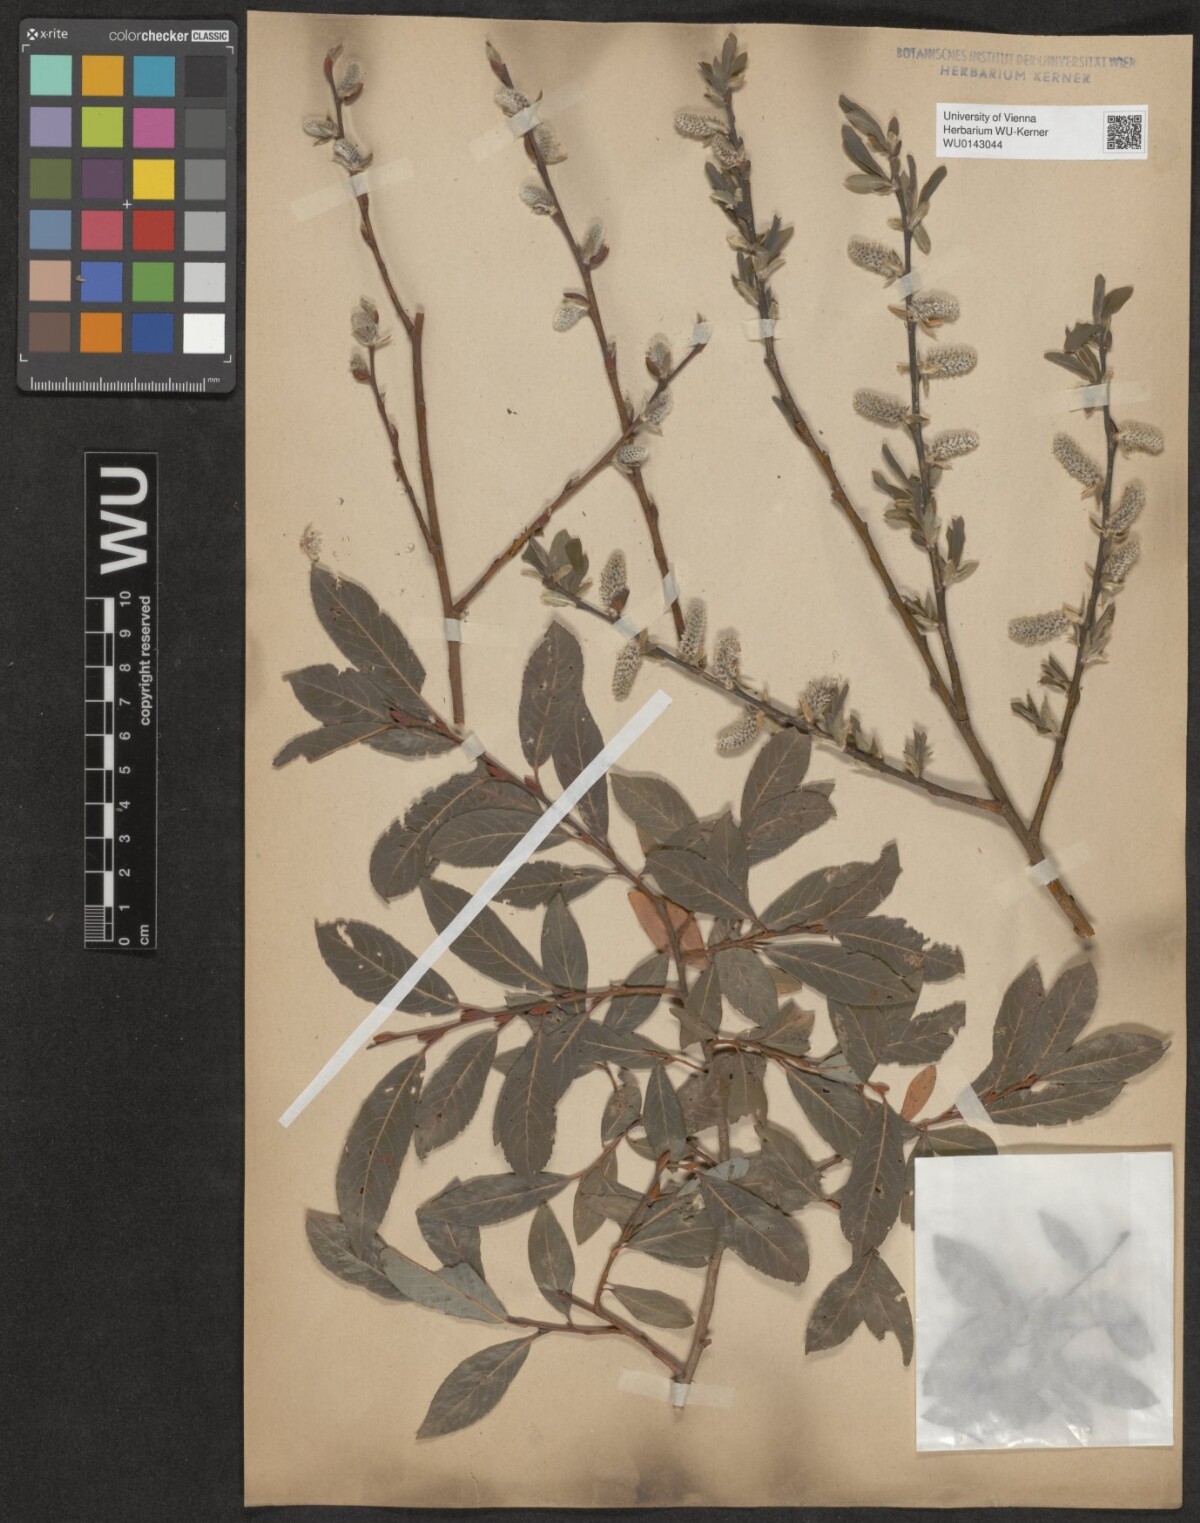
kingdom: Plantae
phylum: Tracheophyta
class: Magnoliopsida
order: Malpighiales
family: Salicaceae
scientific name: Salicaceae
